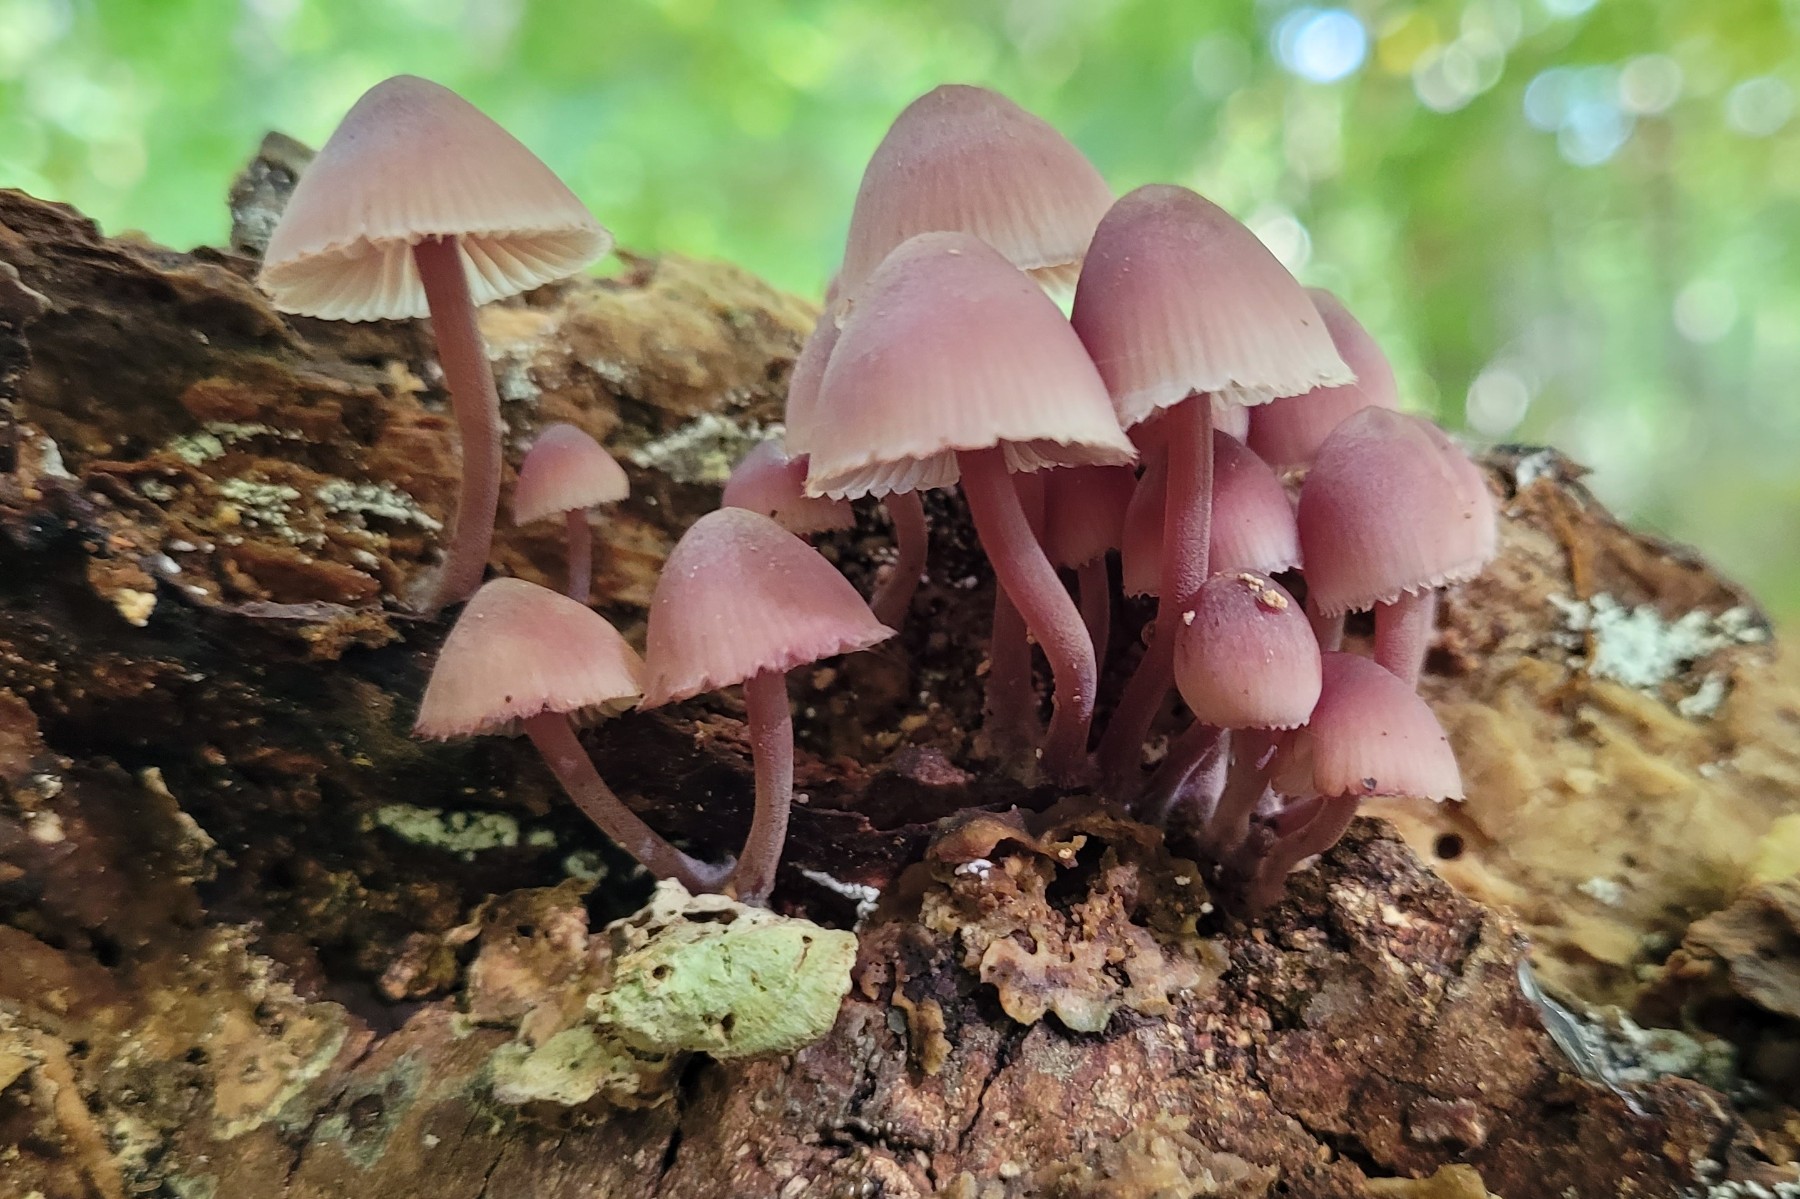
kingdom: Fungi
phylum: Basidiomycota
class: Agaricomycetes
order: Agaricales
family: Mycenaceae
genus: Mycena
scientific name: Mycena haematopus
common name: blødende huesvamp
